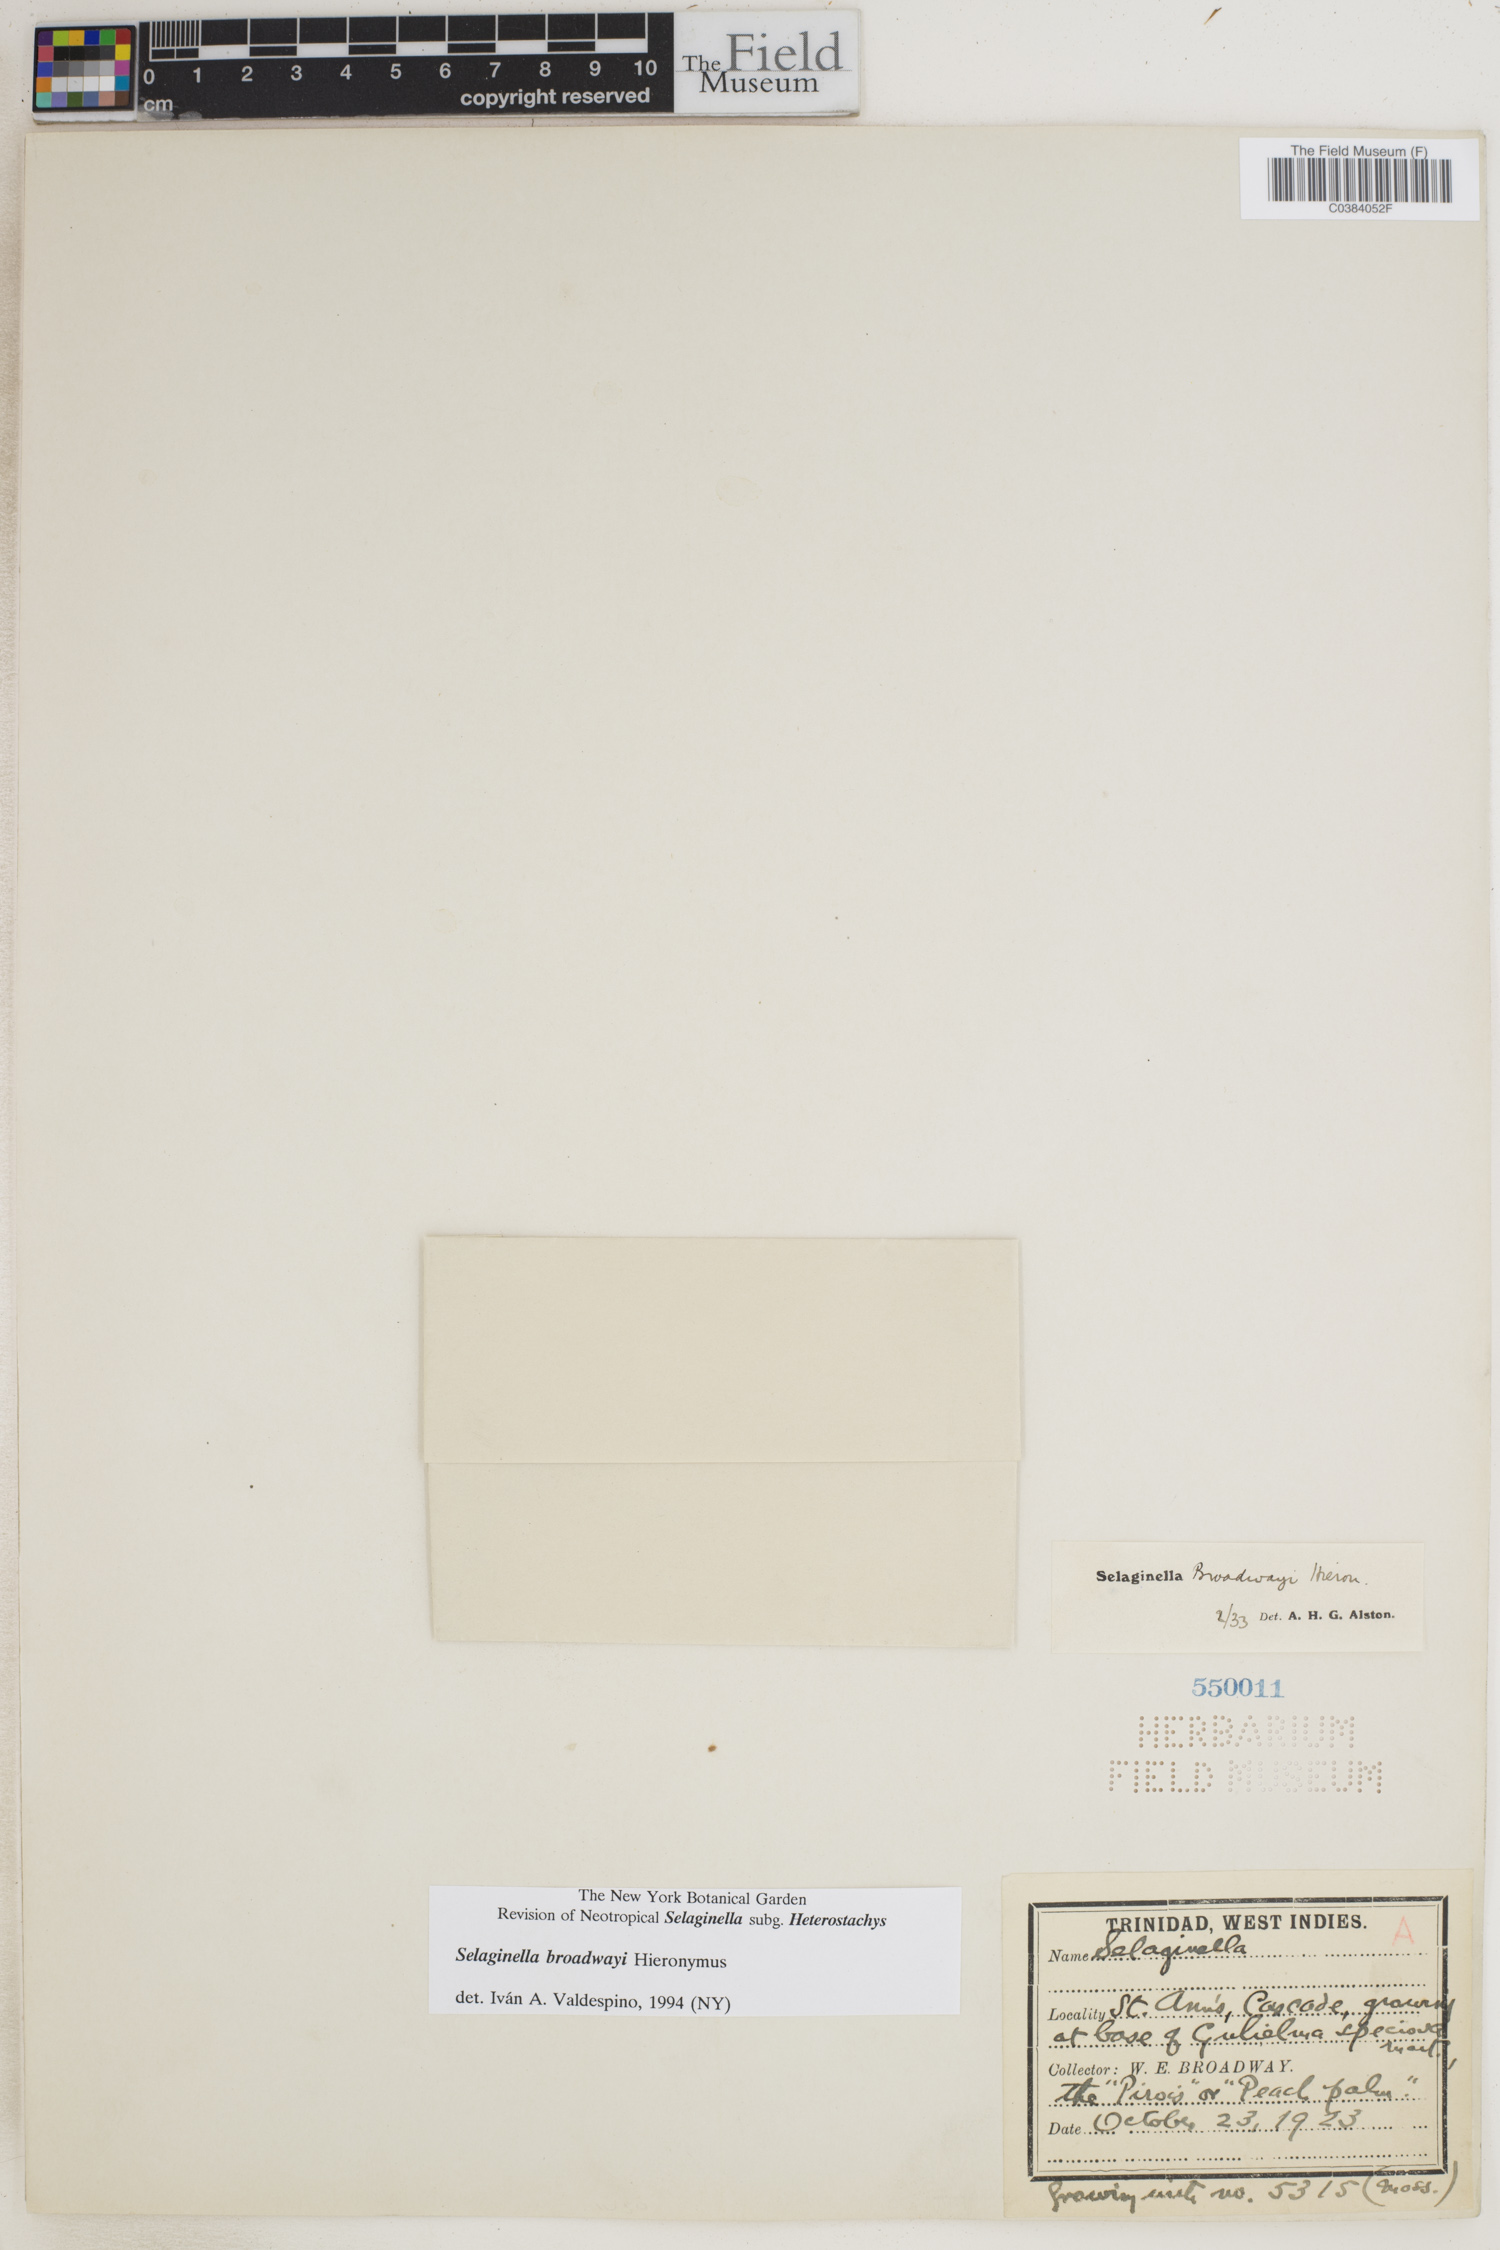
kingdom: Plantae
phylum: Tracheophyta
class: Lycopodiopsida
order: Selaginellales
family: Selaginellaceae
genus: Selaginella
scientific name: Selaginella minima
